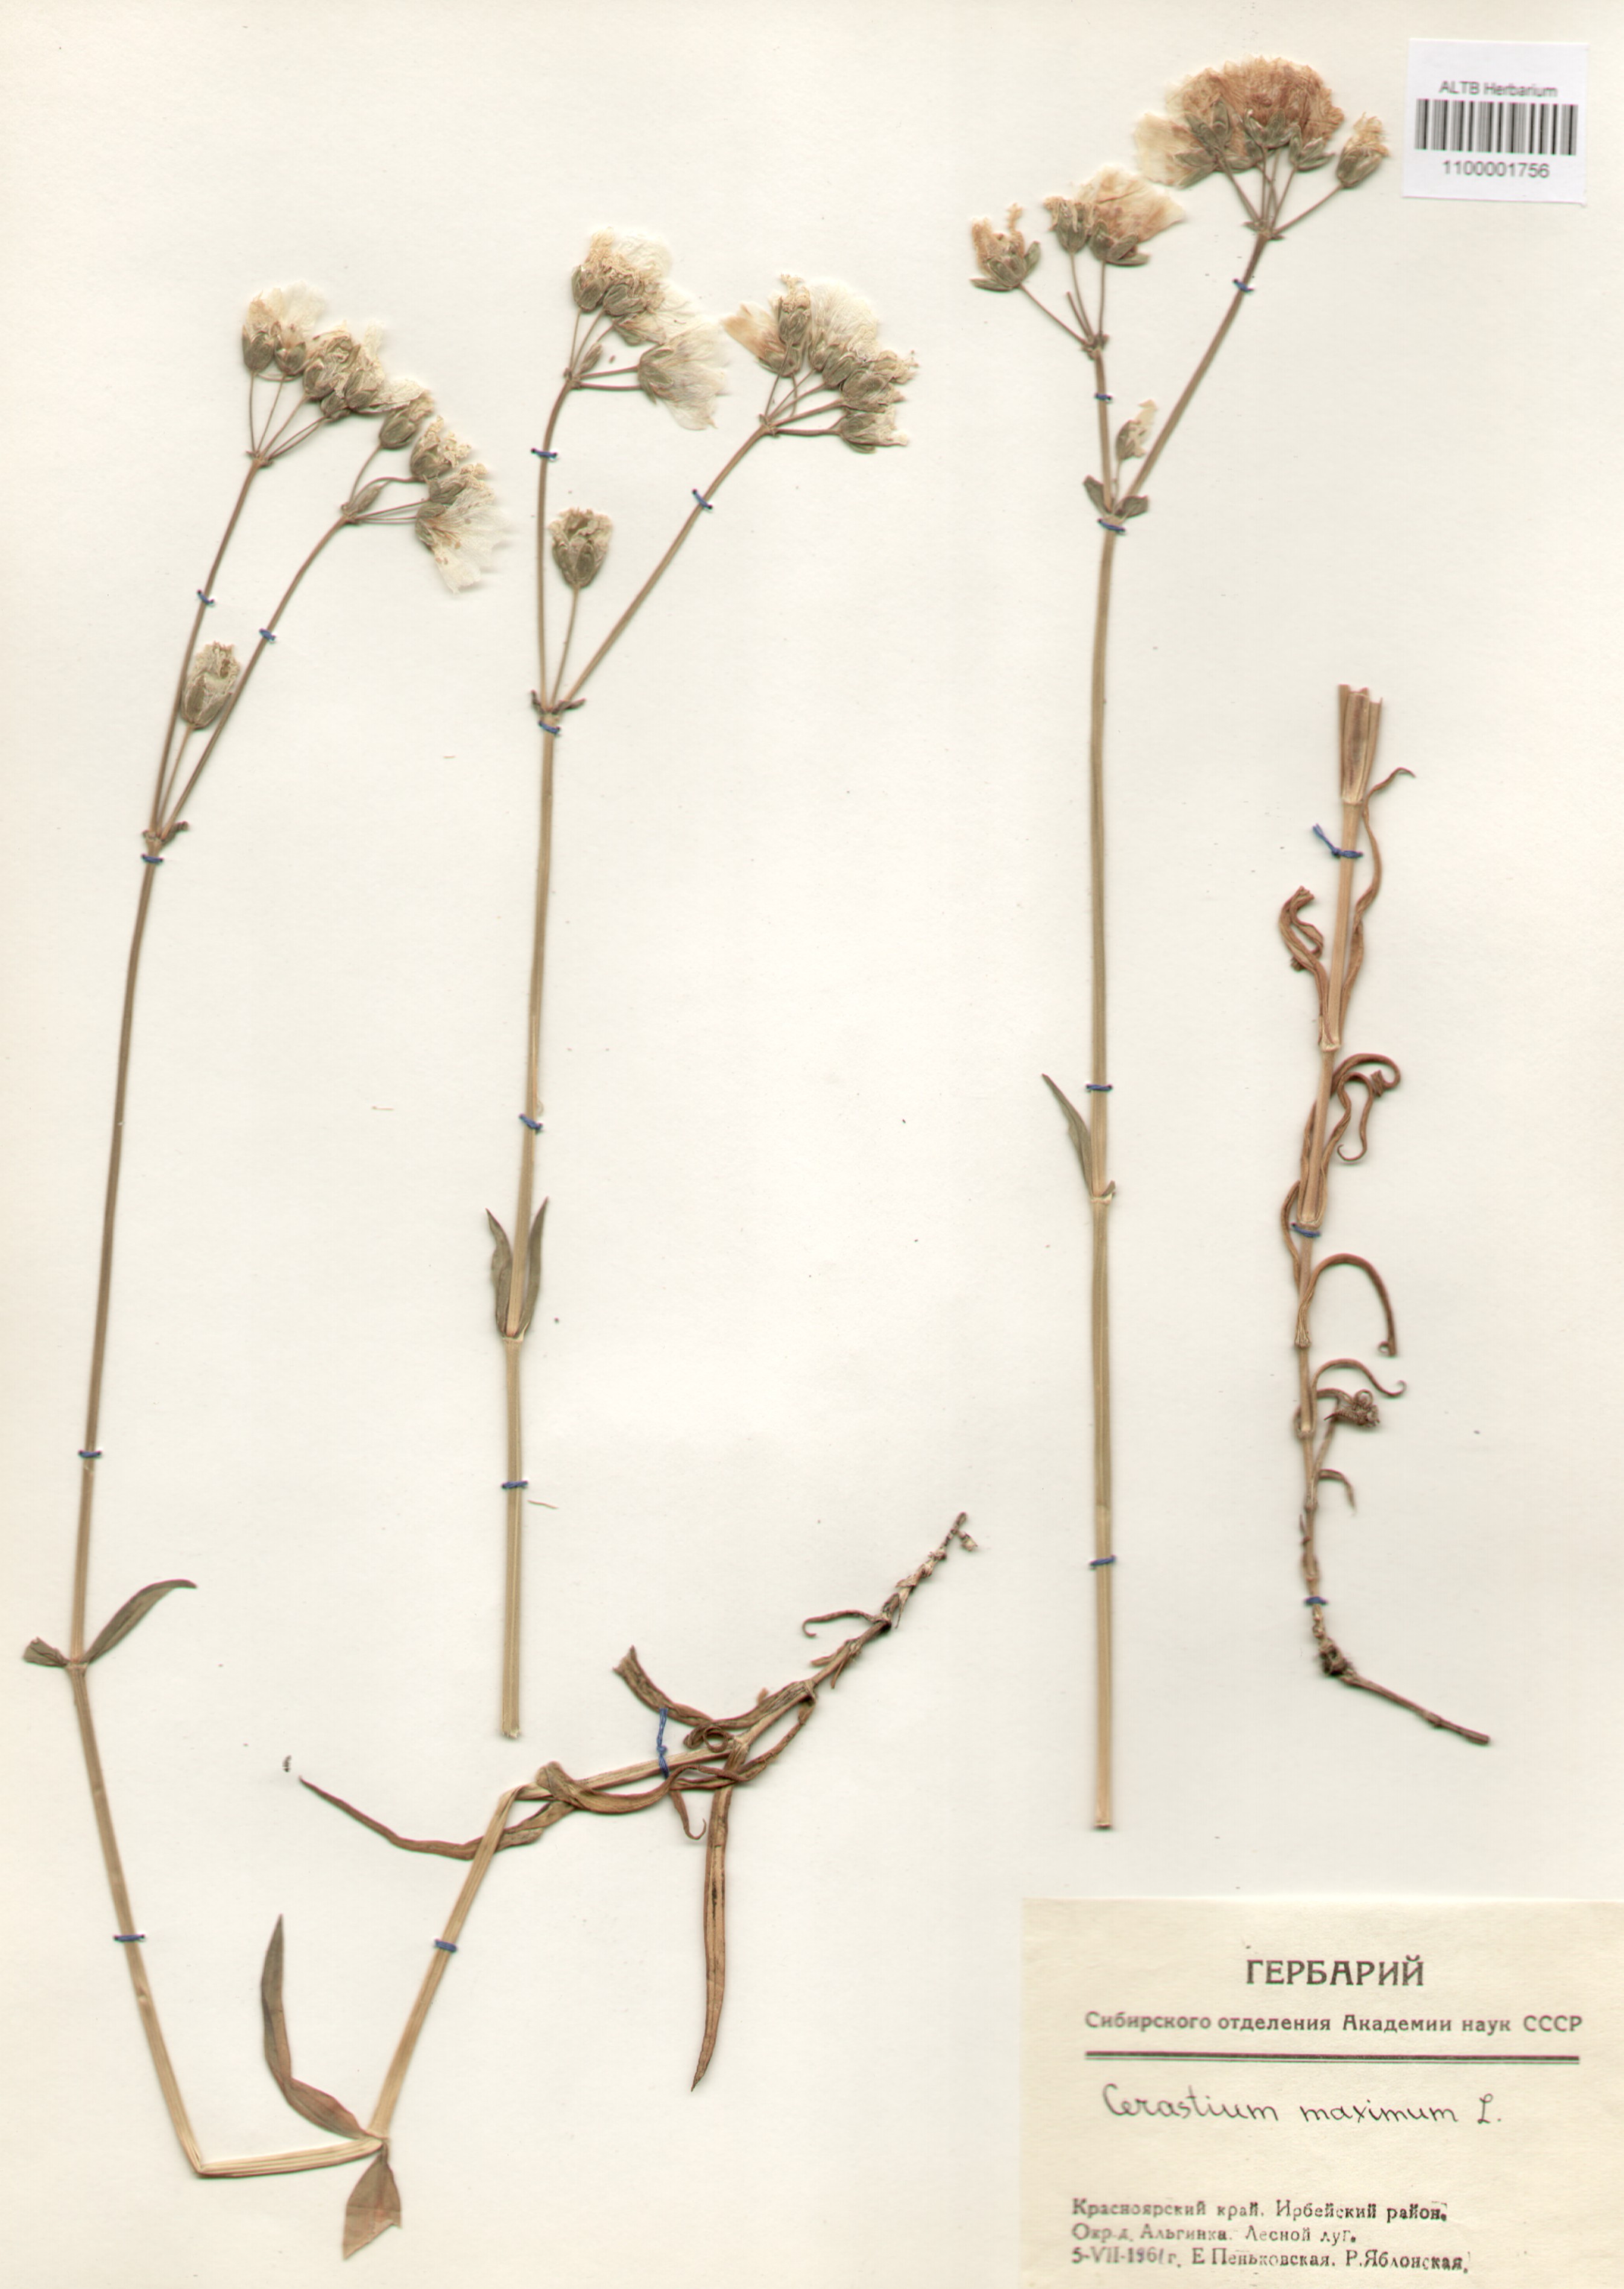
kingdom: Plantae
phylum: Tracheophyta
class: Magnoliopsida
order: Caryophyllales
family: Caryophyllaceae
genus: Dichodon
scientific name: Dichodon maximum
